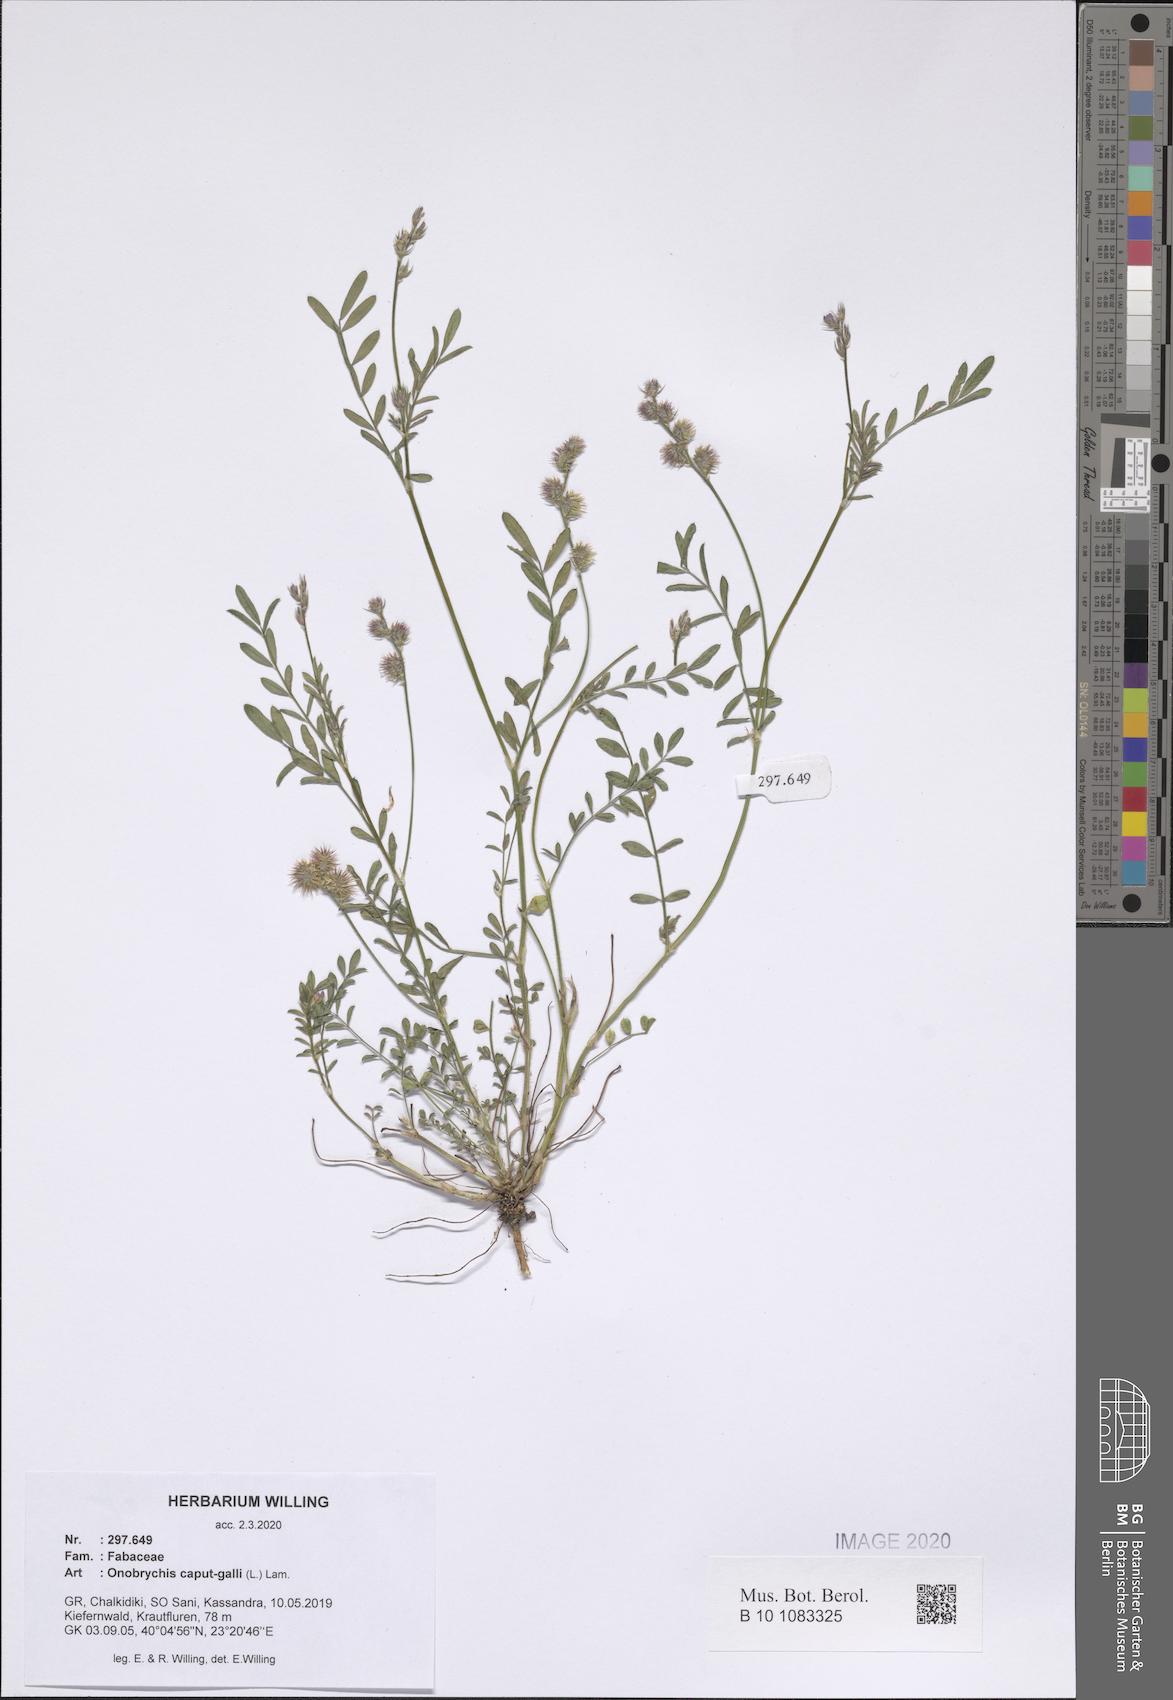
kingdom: Plantae
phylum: Tracheophyta
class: Magnoliopsida
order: Fabales
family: Fabaceae
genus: Onobrychis
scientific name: Onobrychis caput-galli
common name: Cockscomb sainfoin
